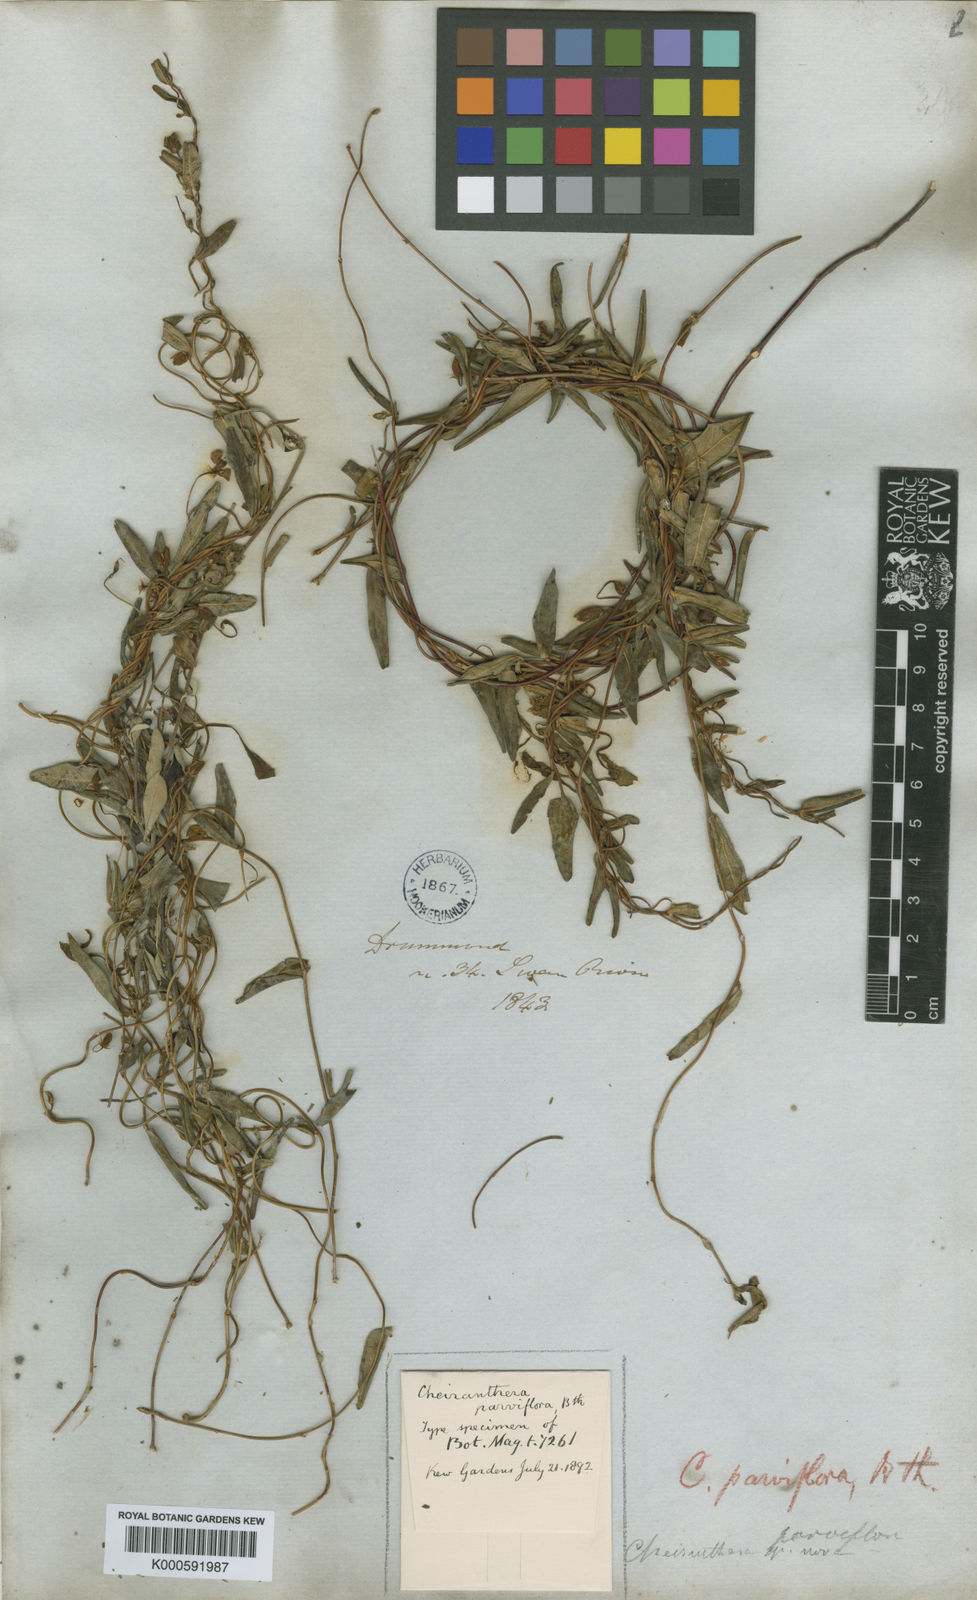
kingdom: Plantae
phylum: Tracheophyta
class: Magnoliopsida
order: Apiales
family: Pittosporaceae
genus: Cheiranthera
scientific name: Cheiranthera parviflora
